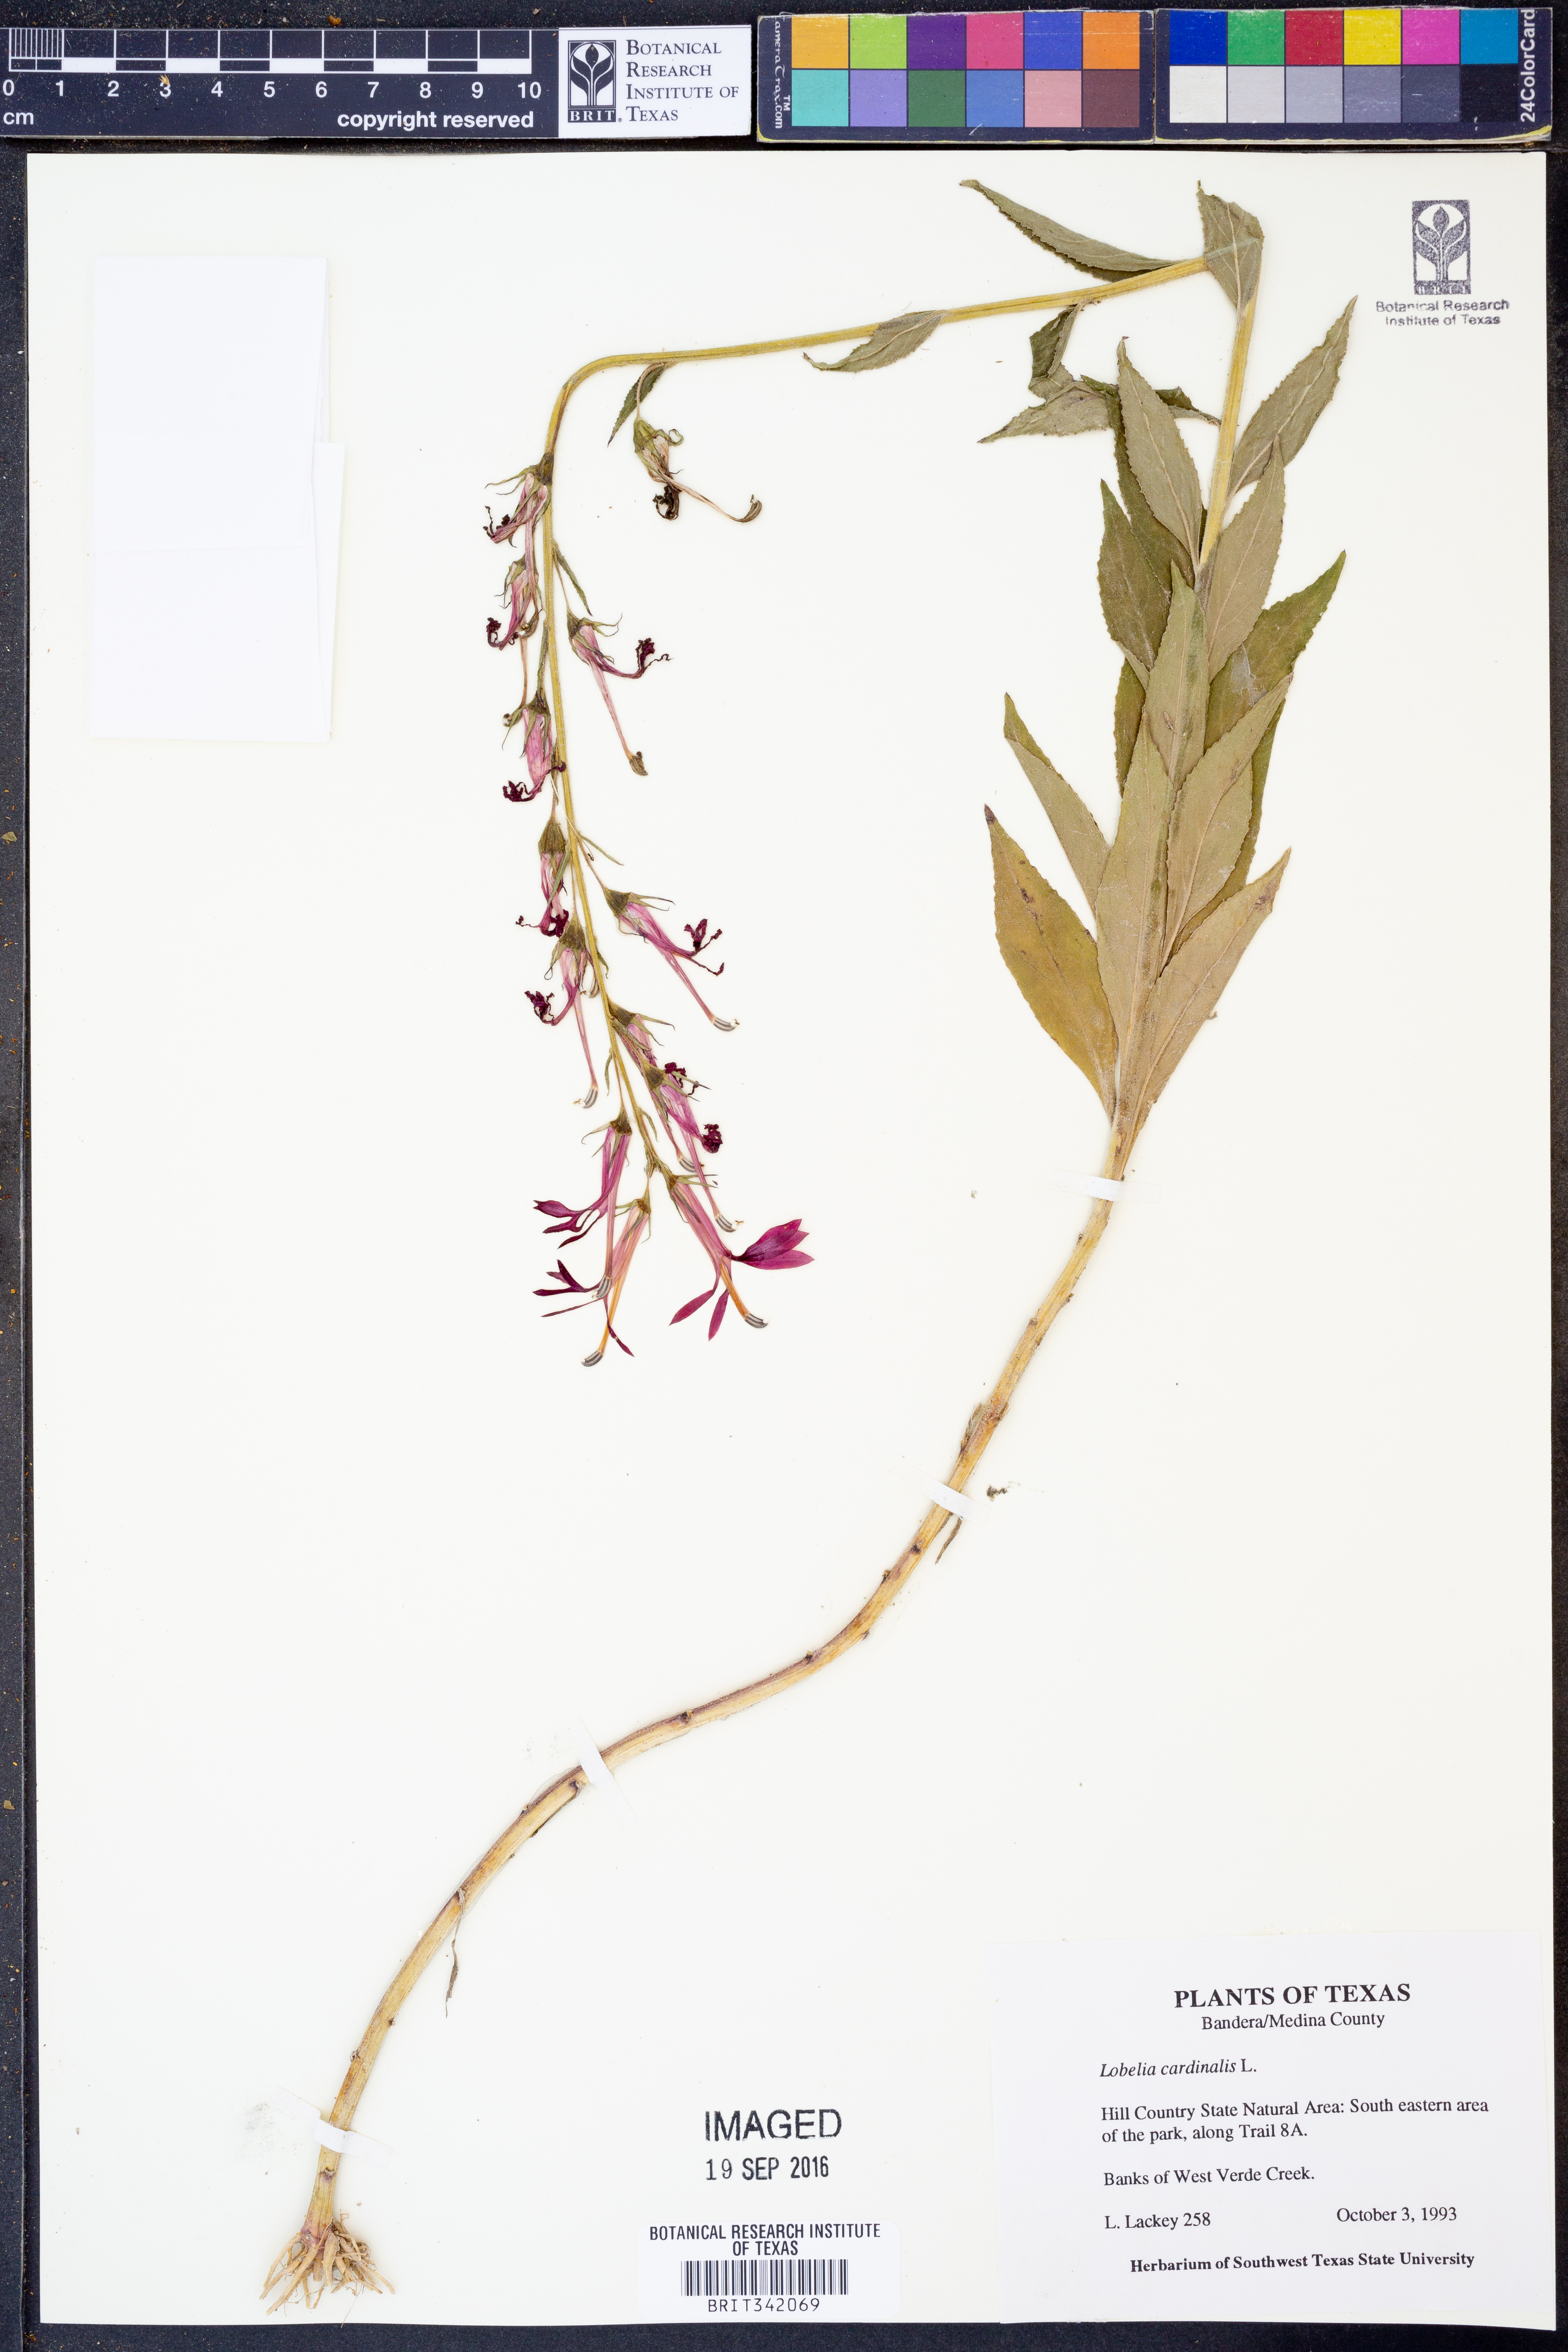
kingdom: Plantae
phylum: Tracheophyta
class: Magnoliopsida
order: Asterales
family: Campanulaceae
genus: Lobelia
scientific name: Lobelia cardinalis
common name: Cardinal flower
